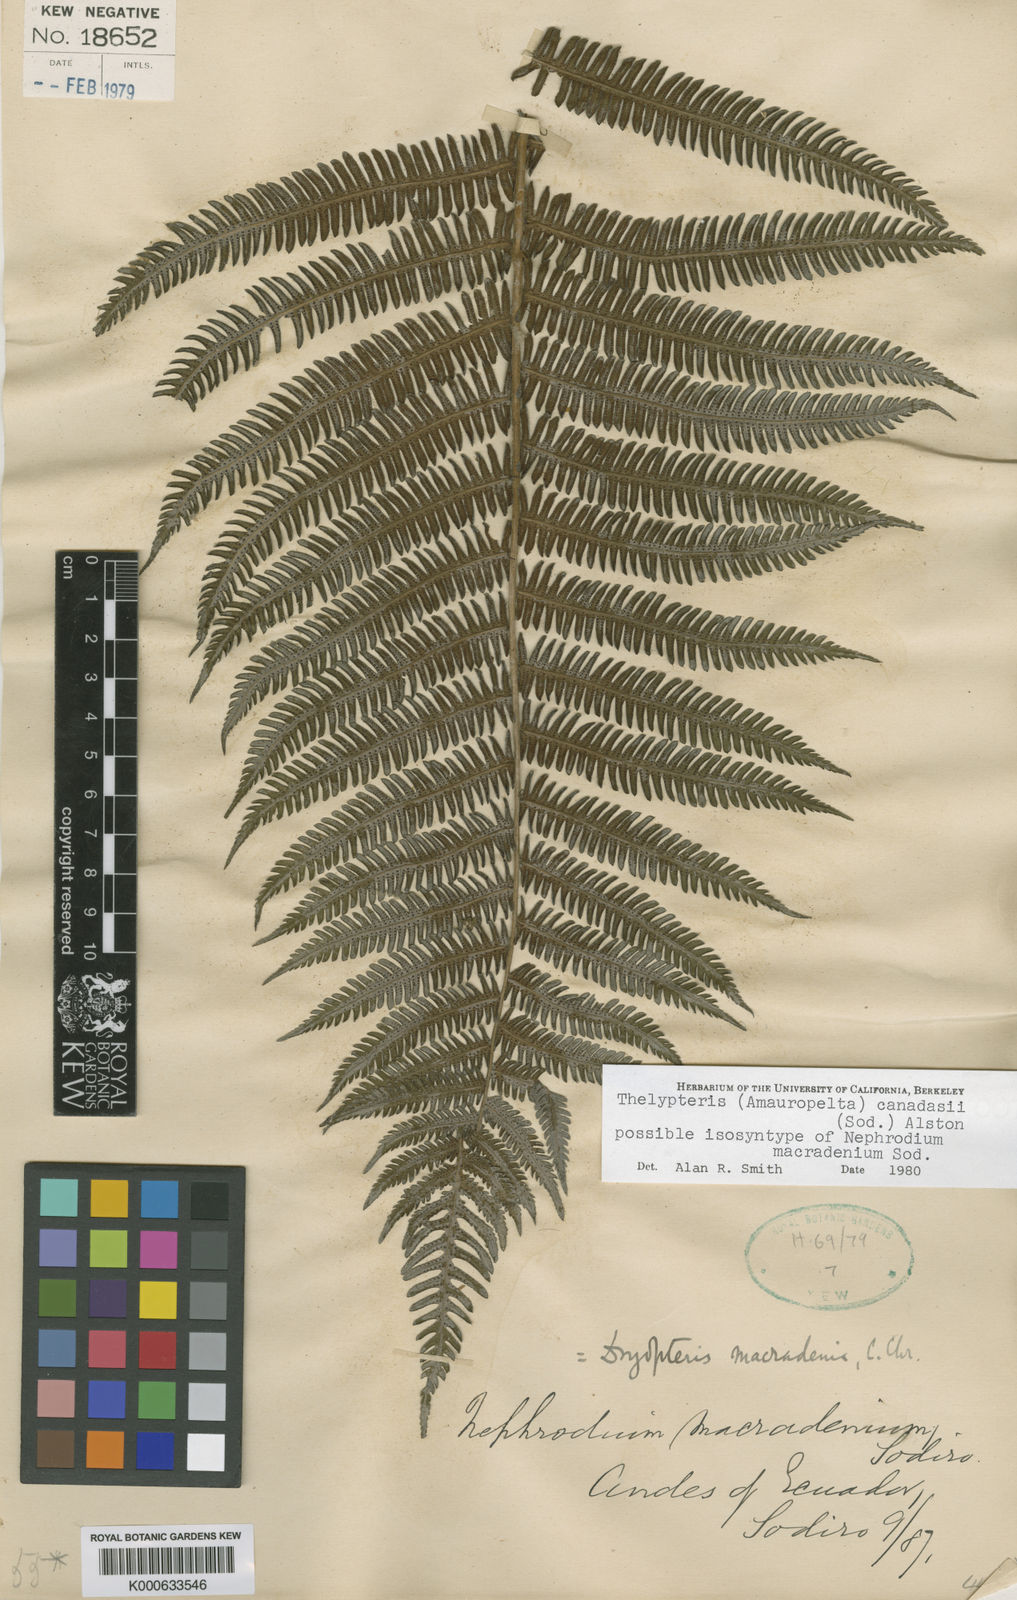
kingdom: Plantae
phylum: Tracheophyta
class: Polypodiopsida
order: Polypodiales
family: Thelypteridaceae
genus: Amauropelta
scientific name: Amauropelta
